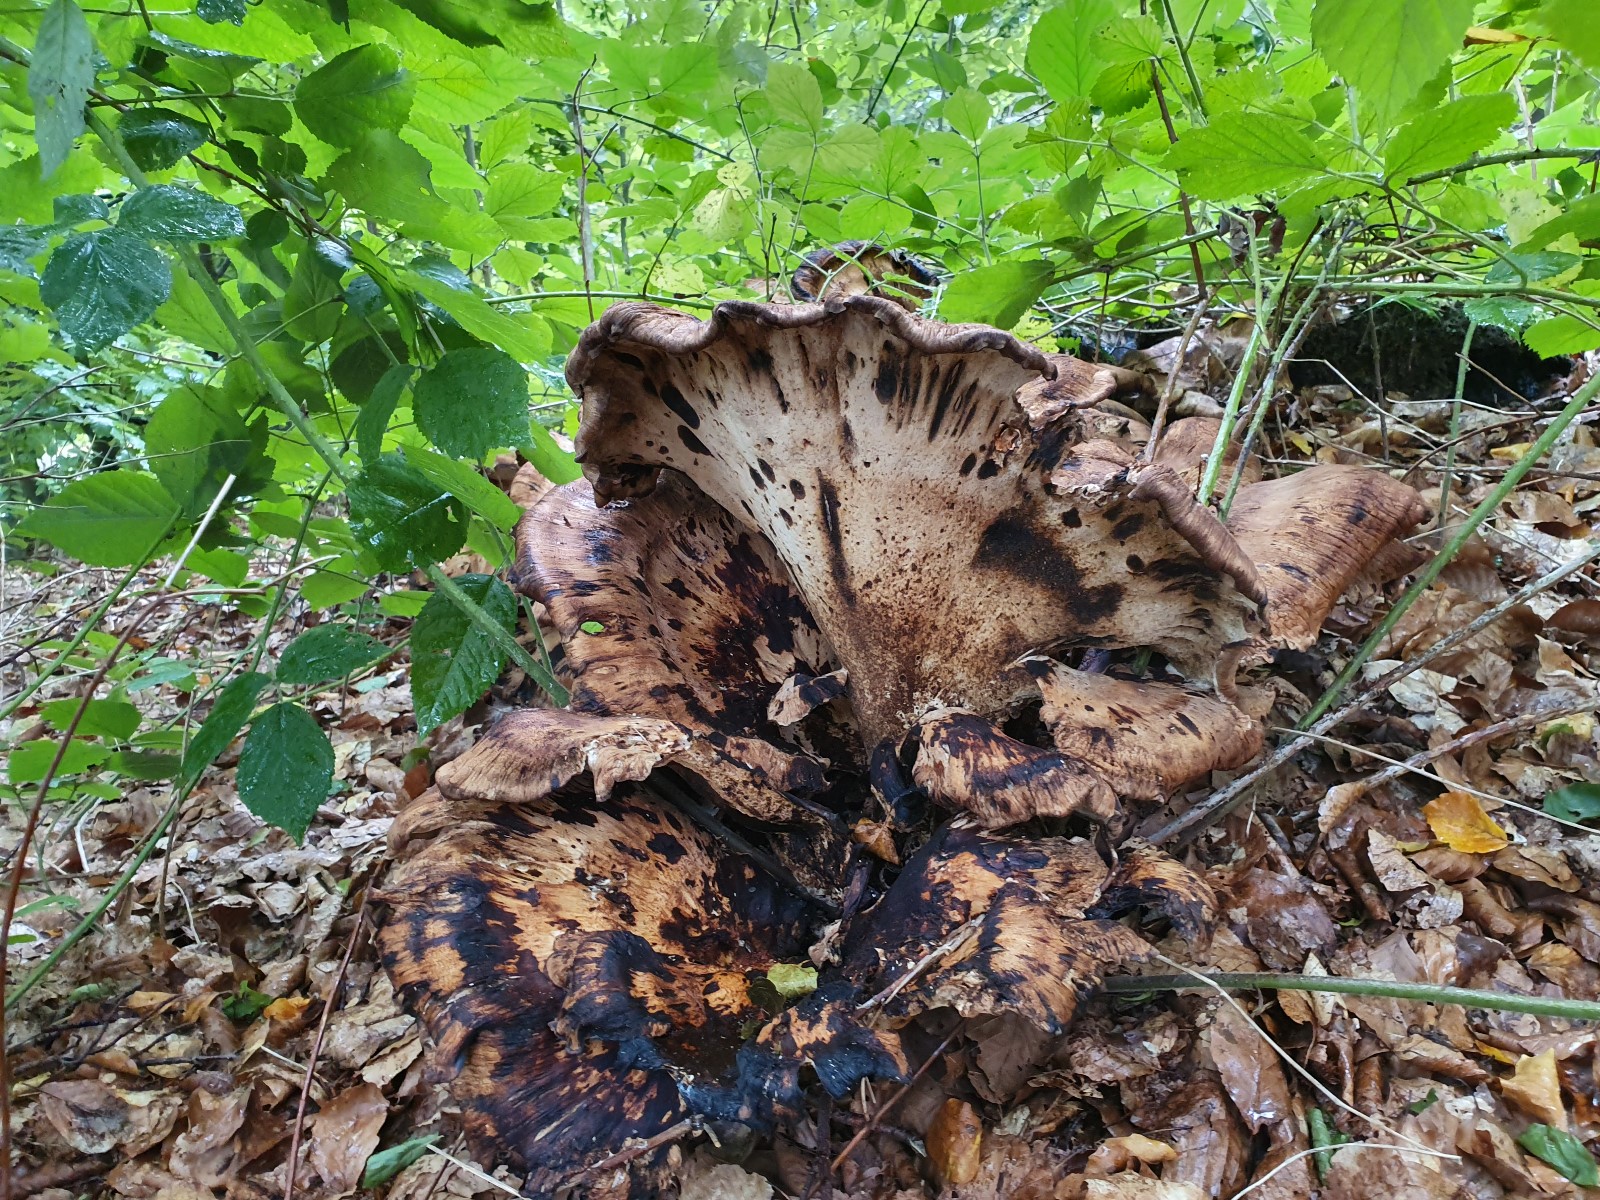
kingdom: Fungi
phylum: Basidiomycota
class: Agaricomycetes
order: Polyporales
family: Meripilaceae
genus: Meripilus
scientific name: Meripilus giganteus
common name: kæmpeporesvamp
